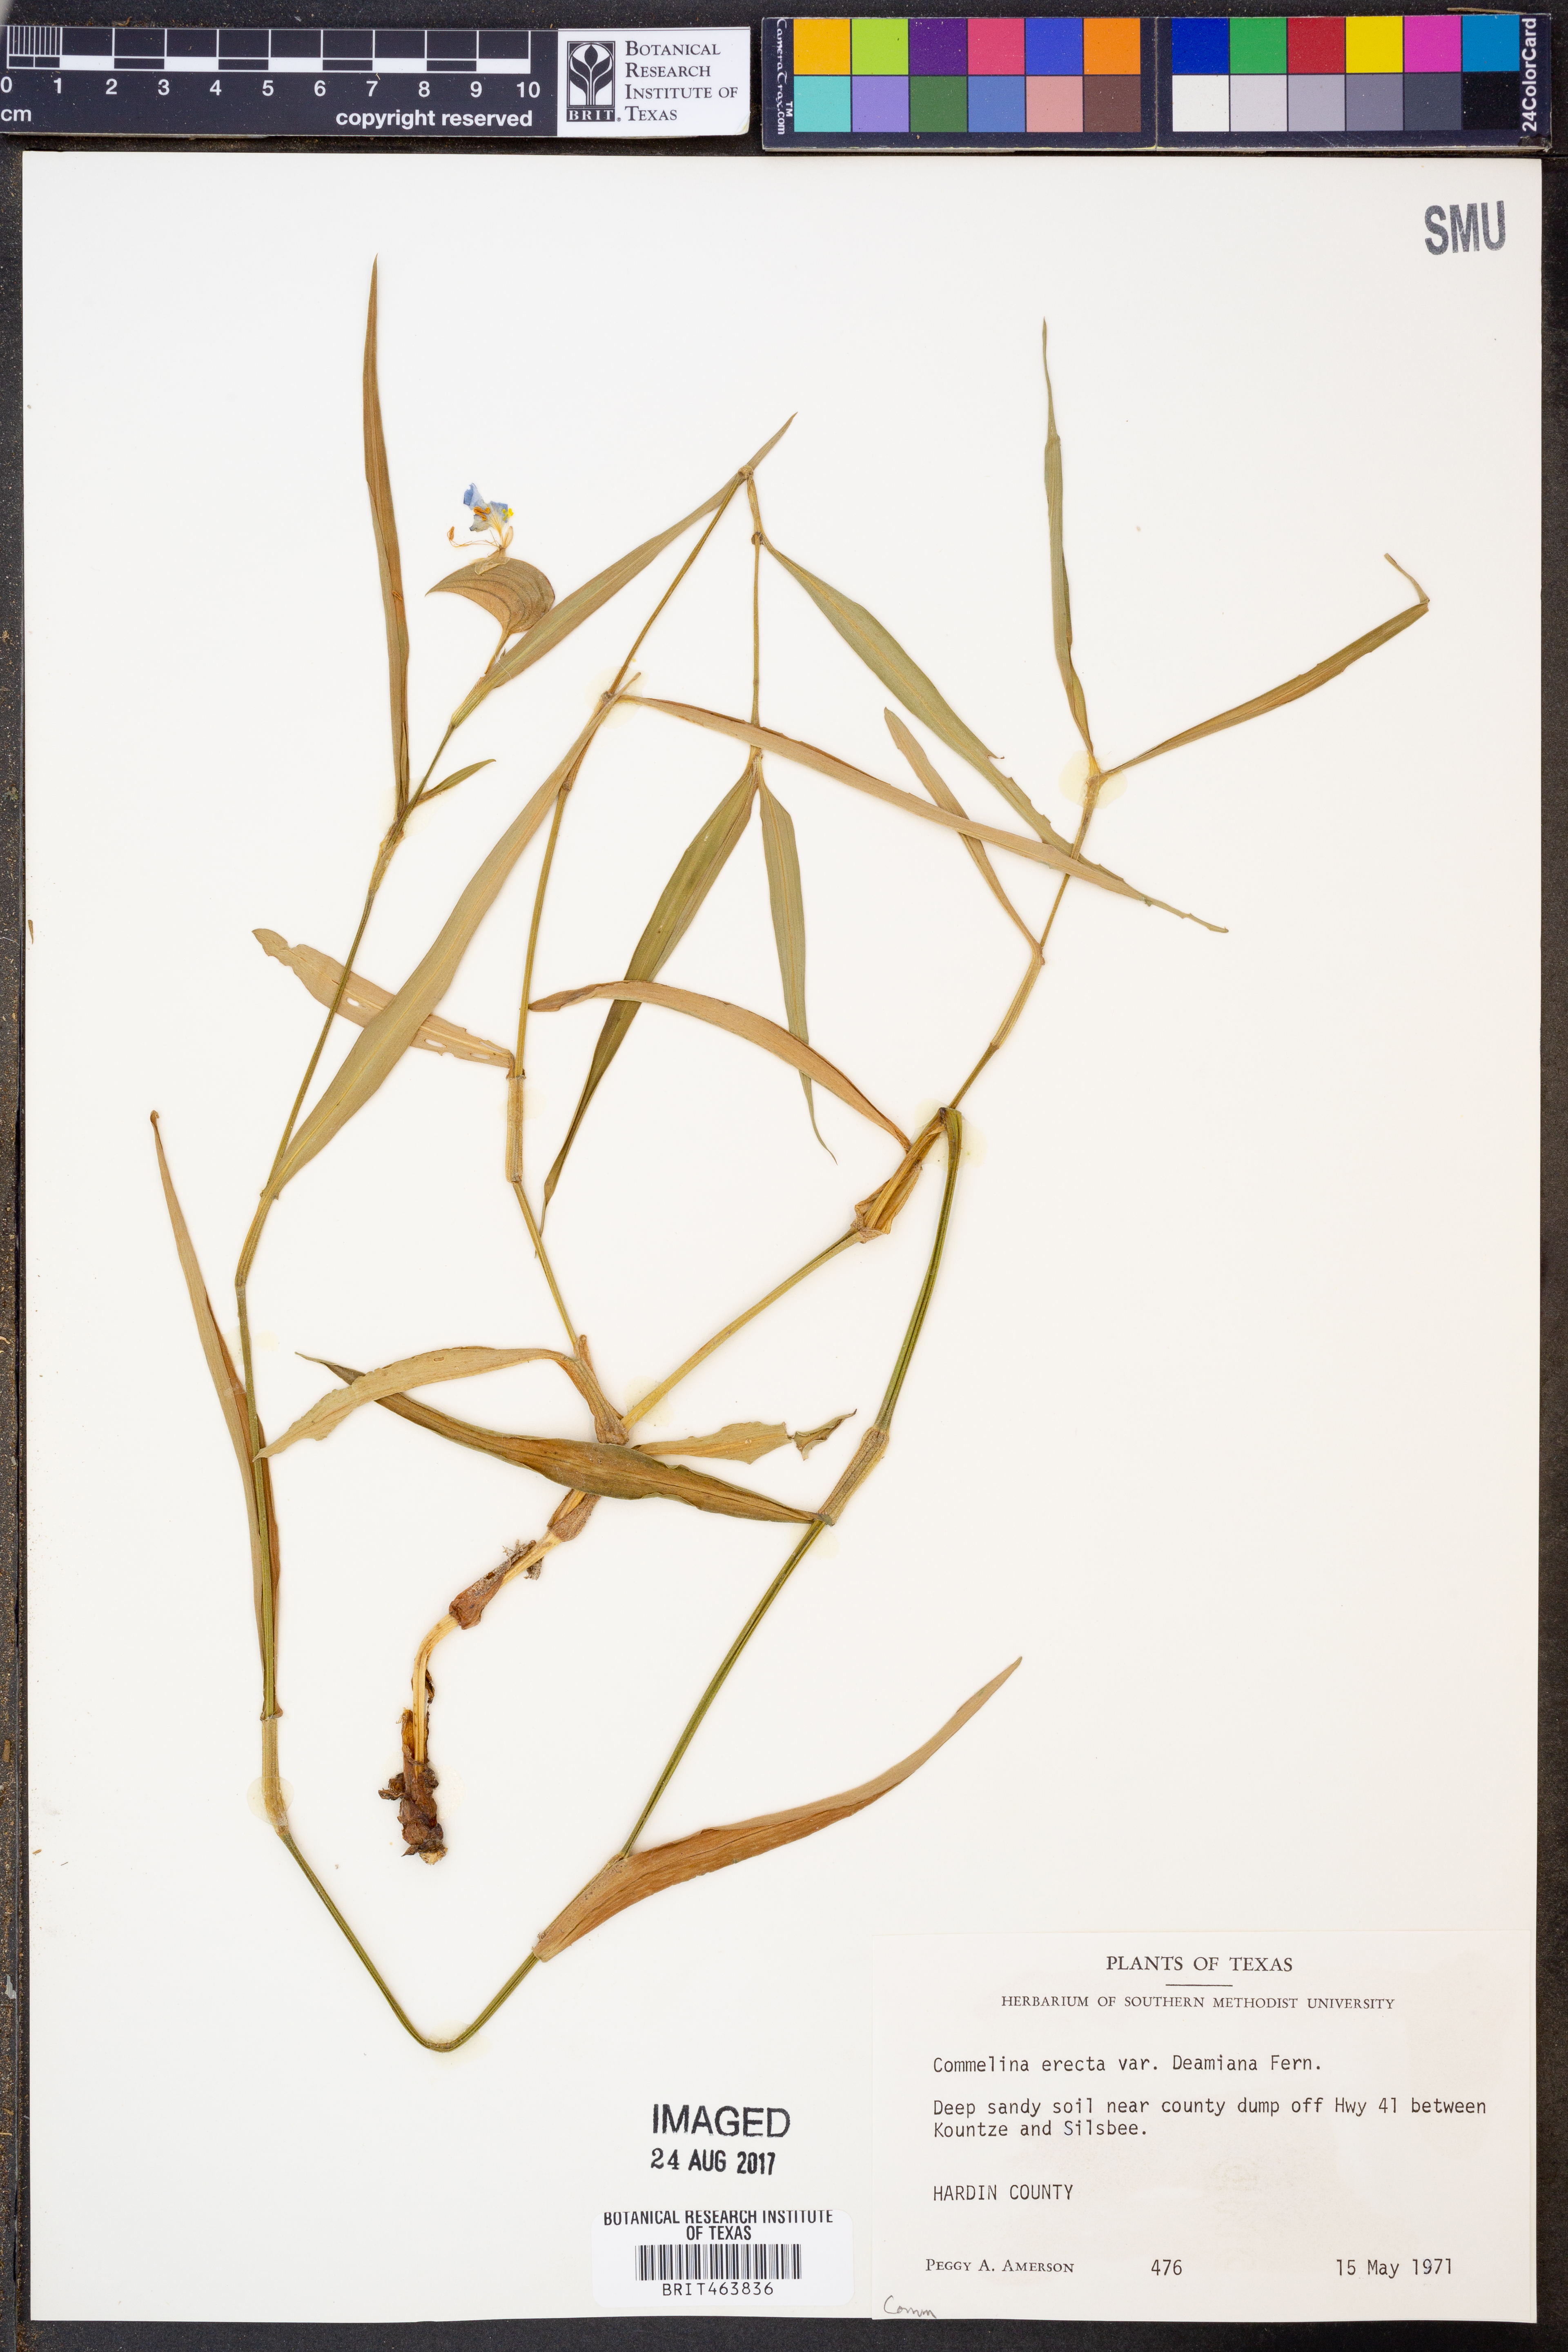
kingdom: Plantae
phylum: Tracheophyta
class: Liliopsida
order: Commelinales
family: Commelinaceae
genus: Commelina
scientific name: Commelina erecta
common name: Blousel blommetjie
